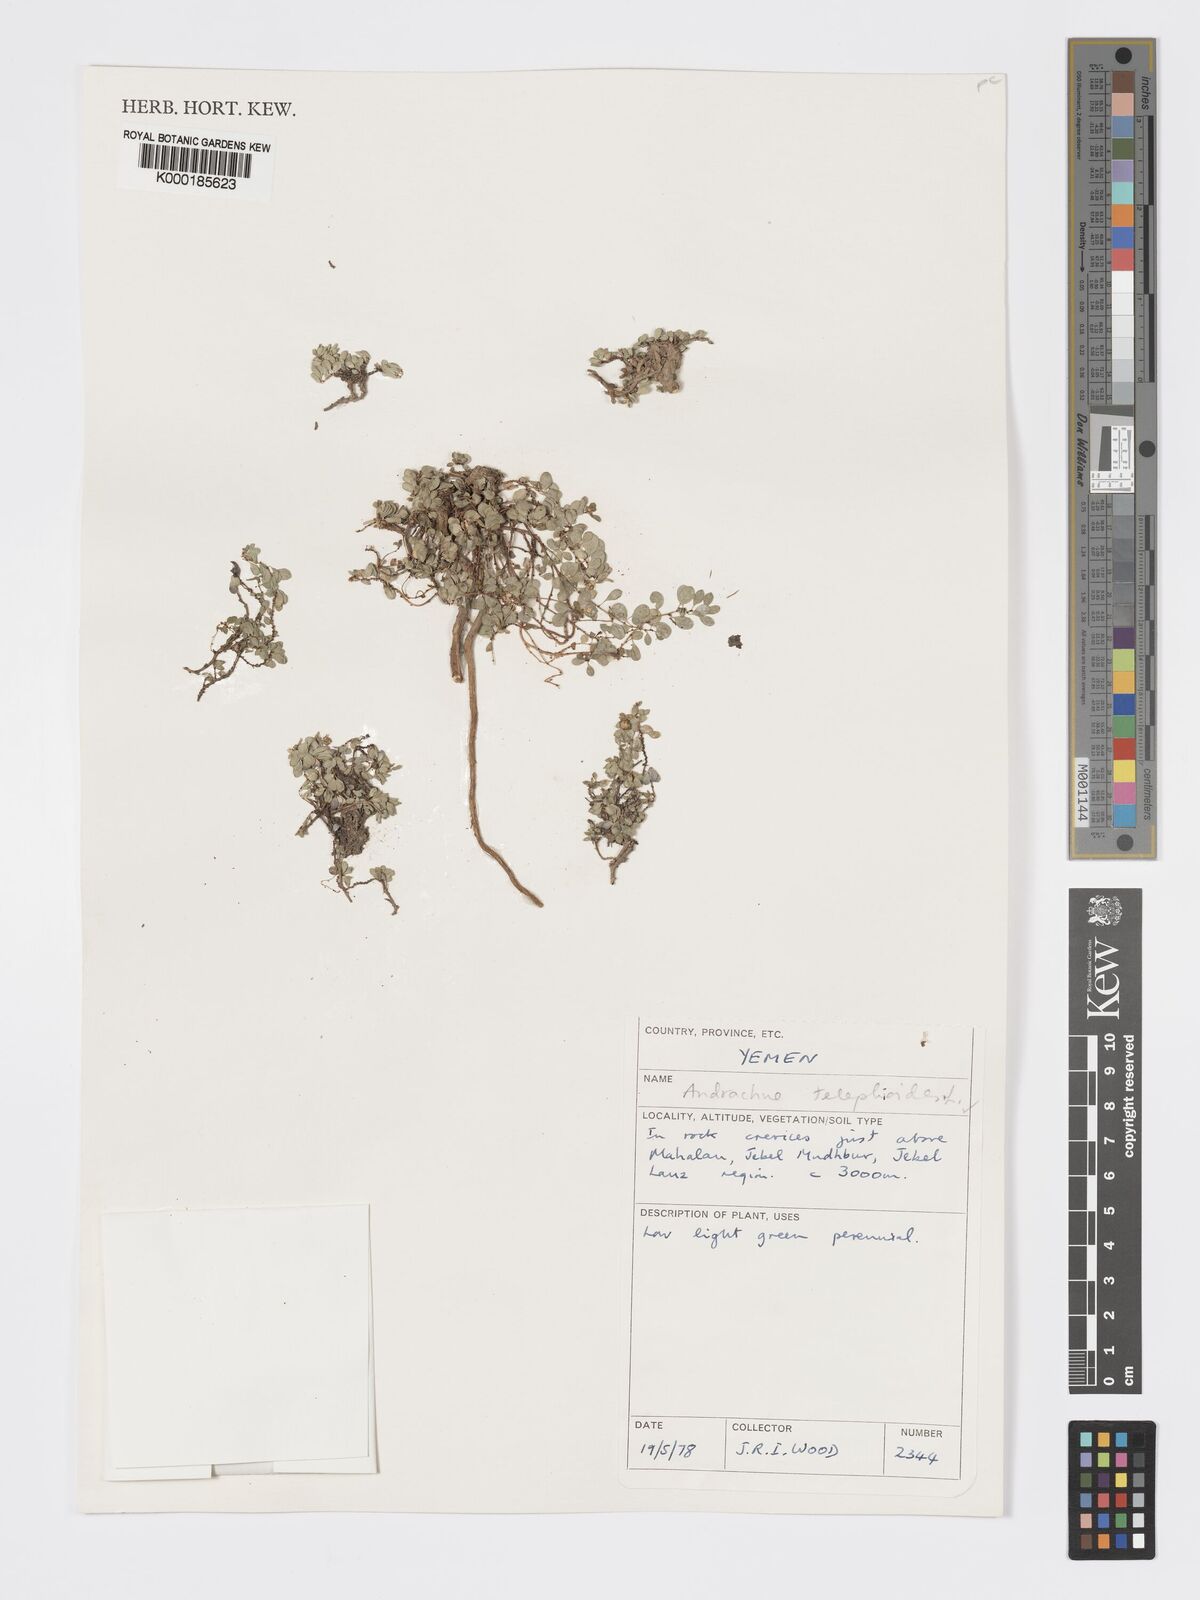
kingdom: Plantae
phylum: Tracheophyta
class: Magnoliopsida
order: Malpighiales
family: Phyllanthaceae
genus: Andrachne
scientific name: Andrachne telephioides
